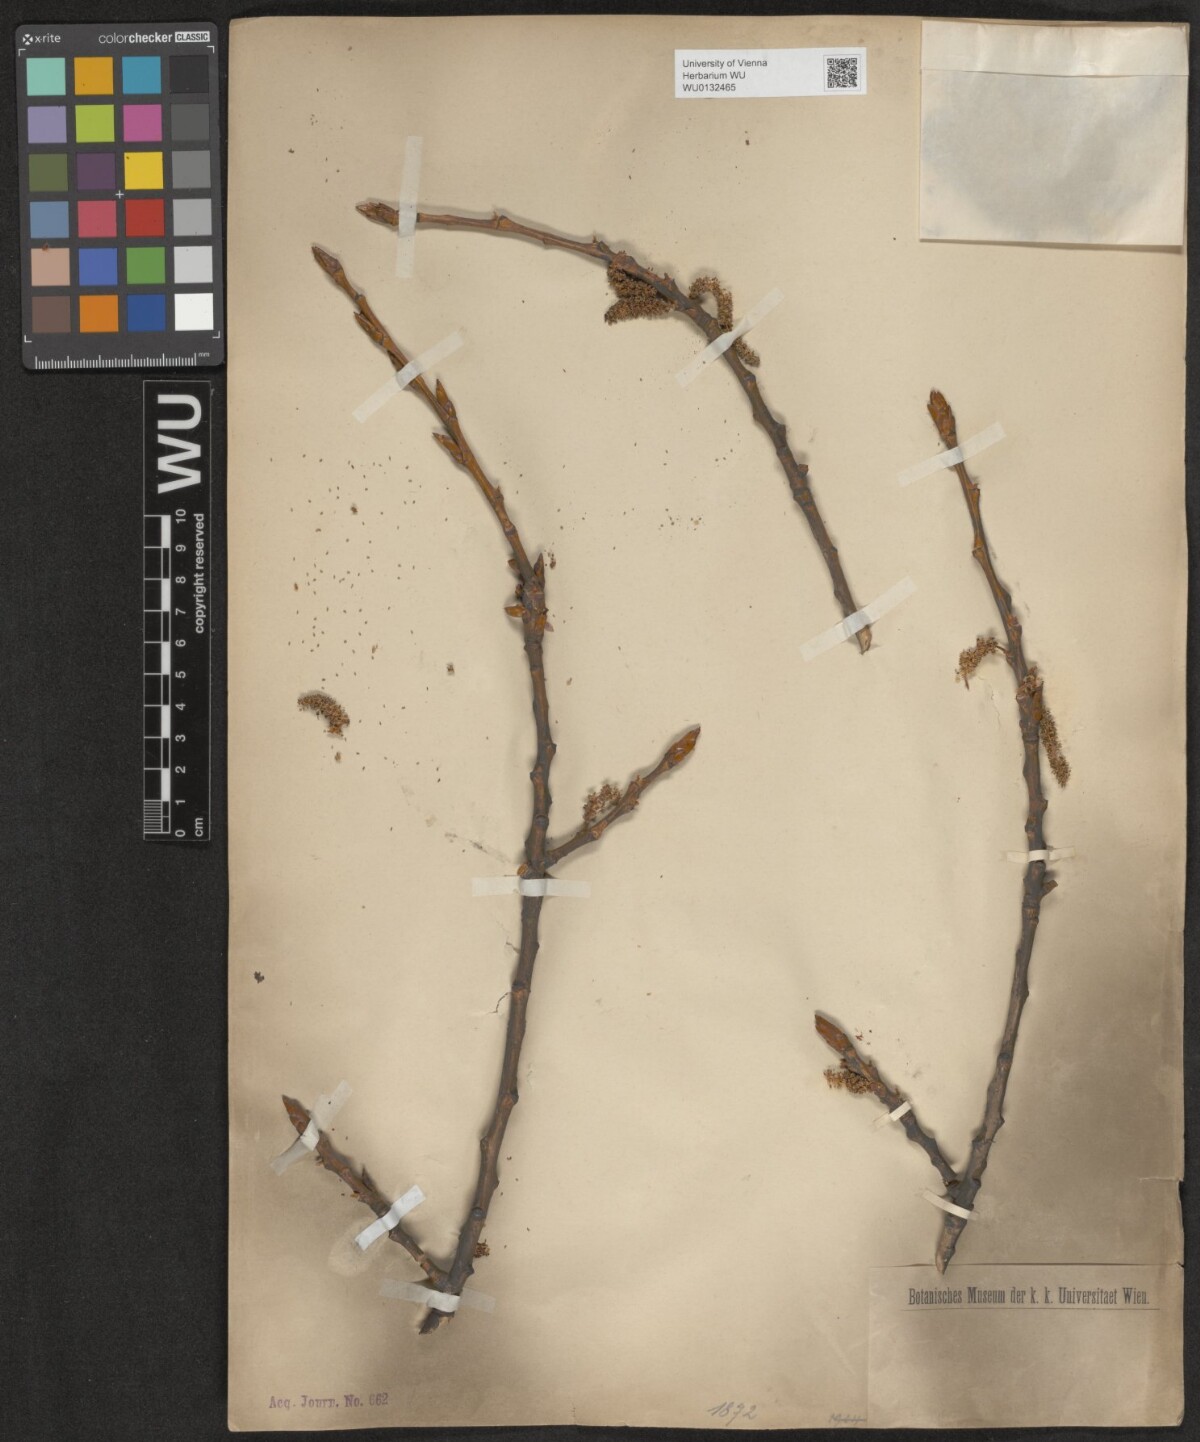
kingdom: Plantae
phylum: Tracheophyta
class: Magnoliopsida
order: Malpighiales
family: Salicaceae
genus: Populus
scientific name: Populus
